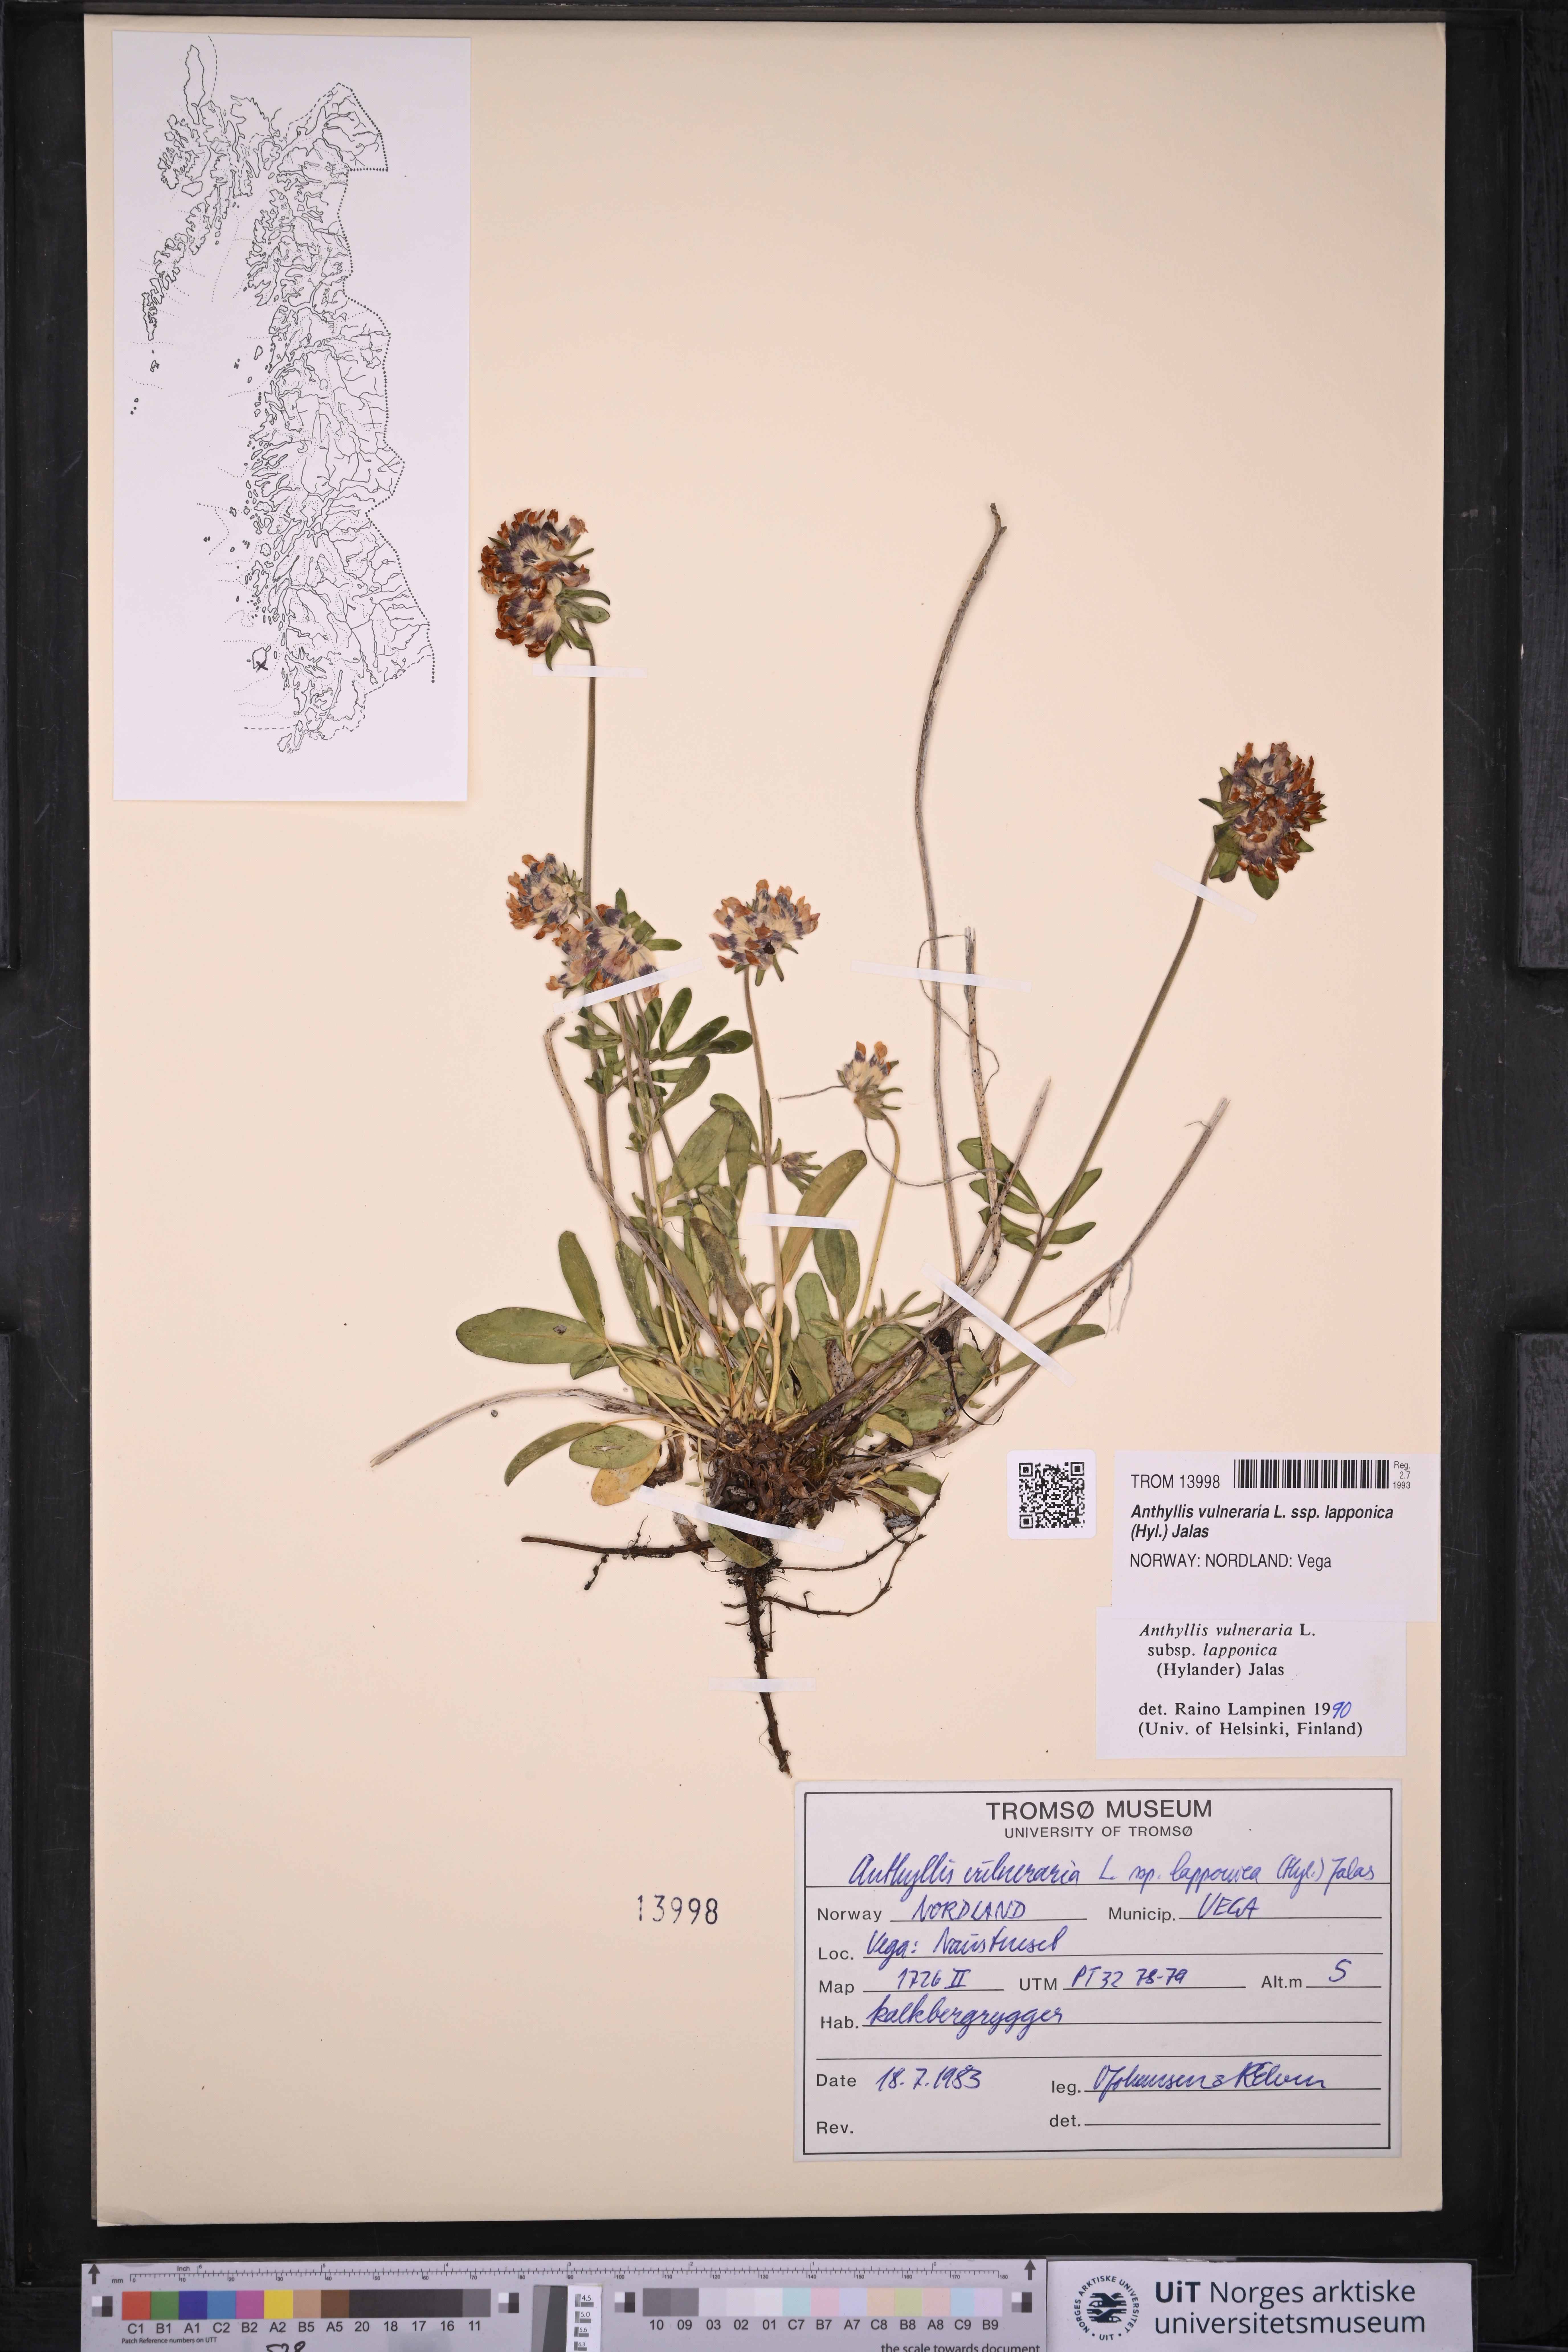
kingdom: Plantae
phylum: Tracheophyta
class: Magnoliopsida
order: Fabales
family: Fabaceae
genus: Anthyllis
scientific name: Anthyllis vulneraria
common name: Kidney vetch
